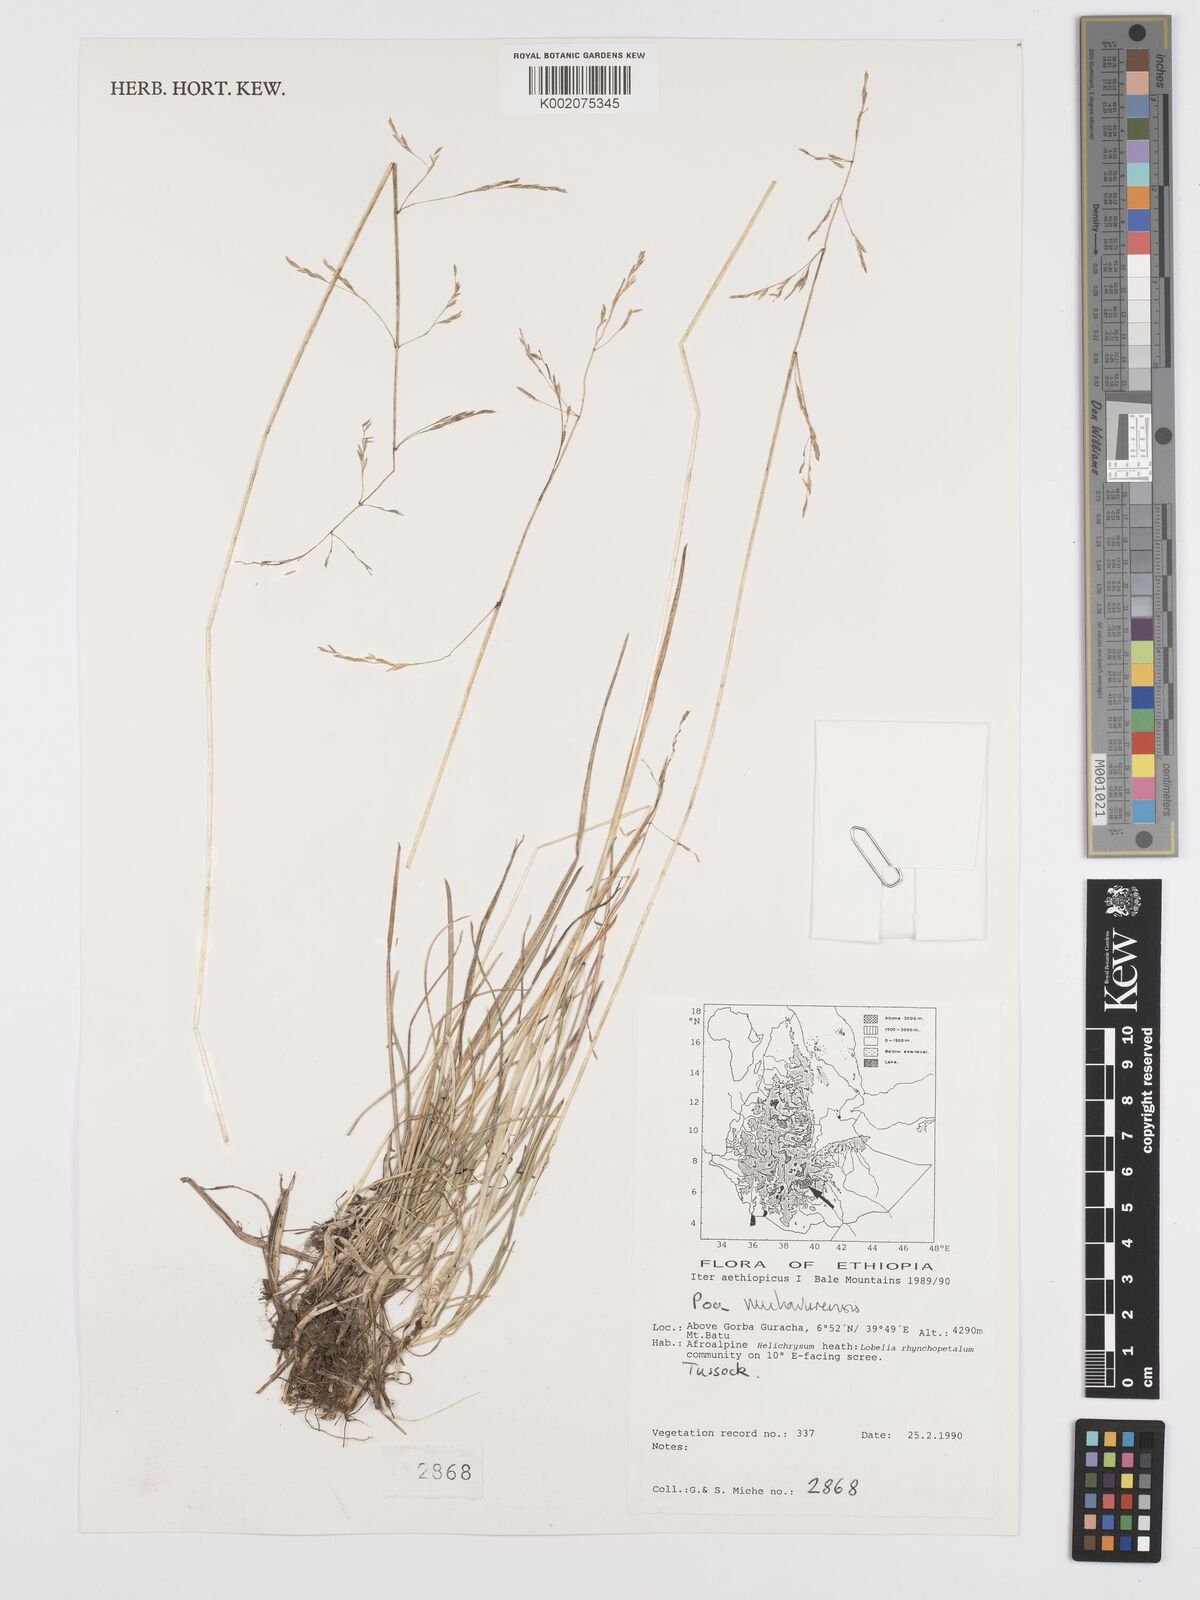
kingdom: Plantae
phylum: Tracheophyta
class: Liliopsida
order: Poales
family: Poaceae
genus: Poa
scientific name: Poa schimperiana
